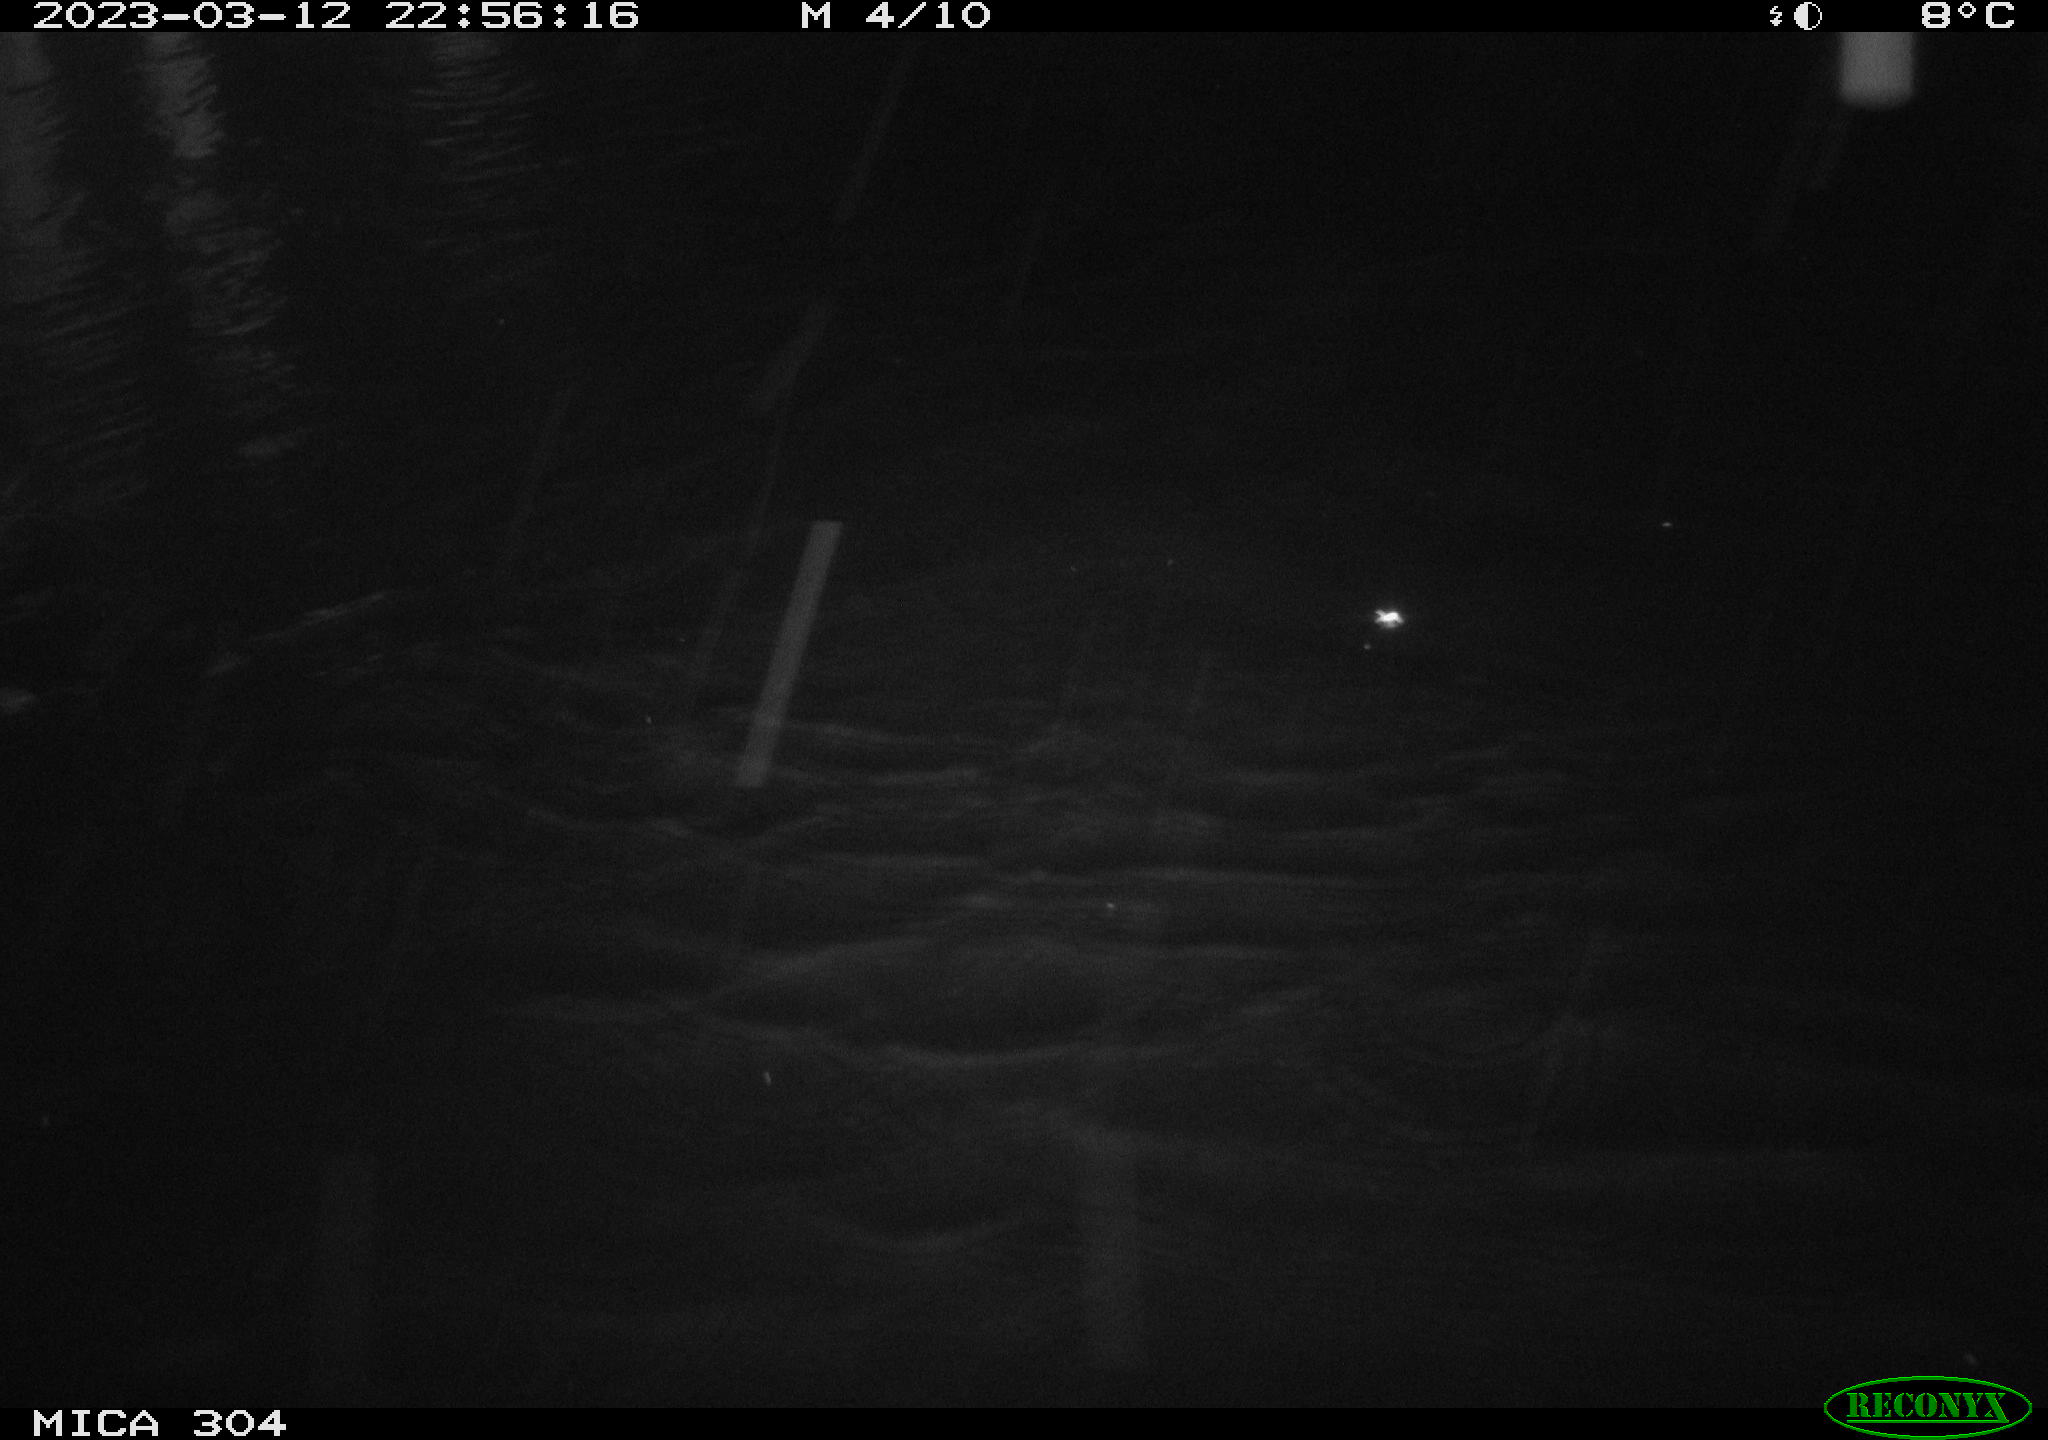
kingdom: Animalia
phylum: Chordata
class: Aves
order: Anseriformes
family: Anatidae
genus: Anas
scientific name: Anas
